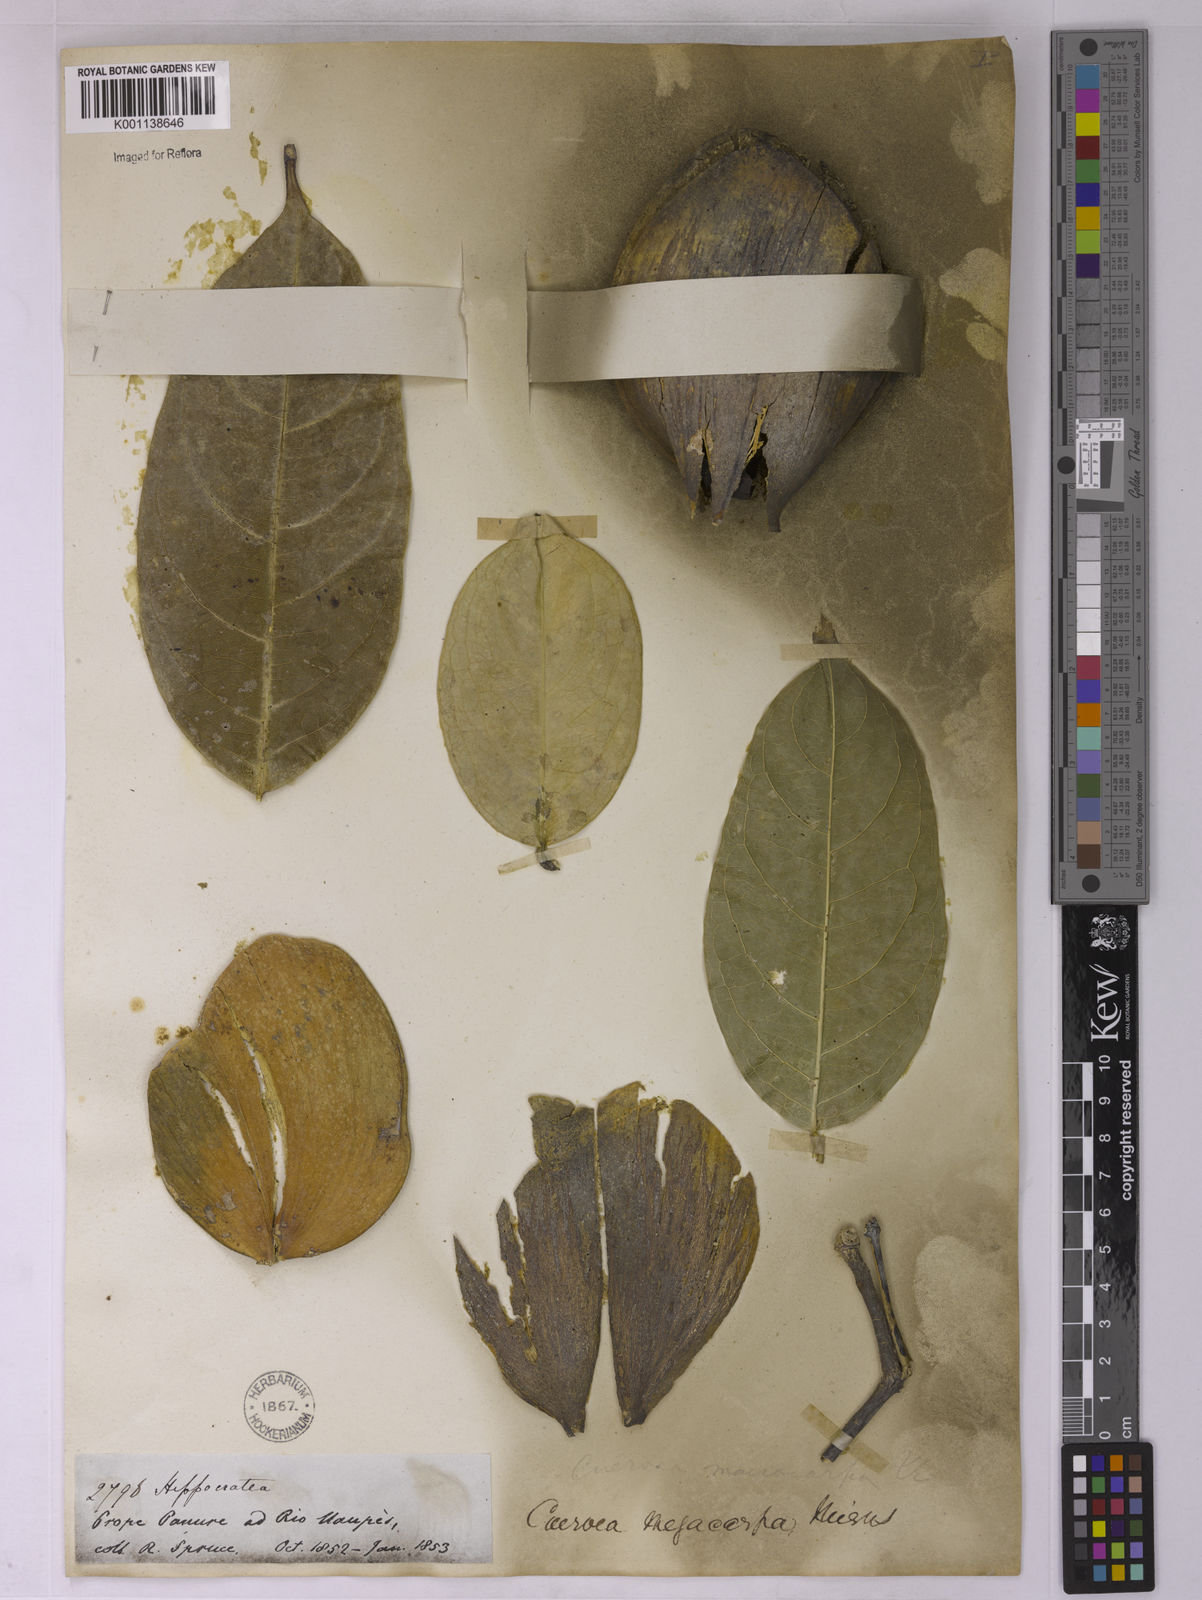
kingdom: Plantae
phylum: Tracheophyta
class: Magnoliopsida
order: Celastrales
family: Celastraceae
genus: Cuervea
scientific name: Cuervea kappleriana
